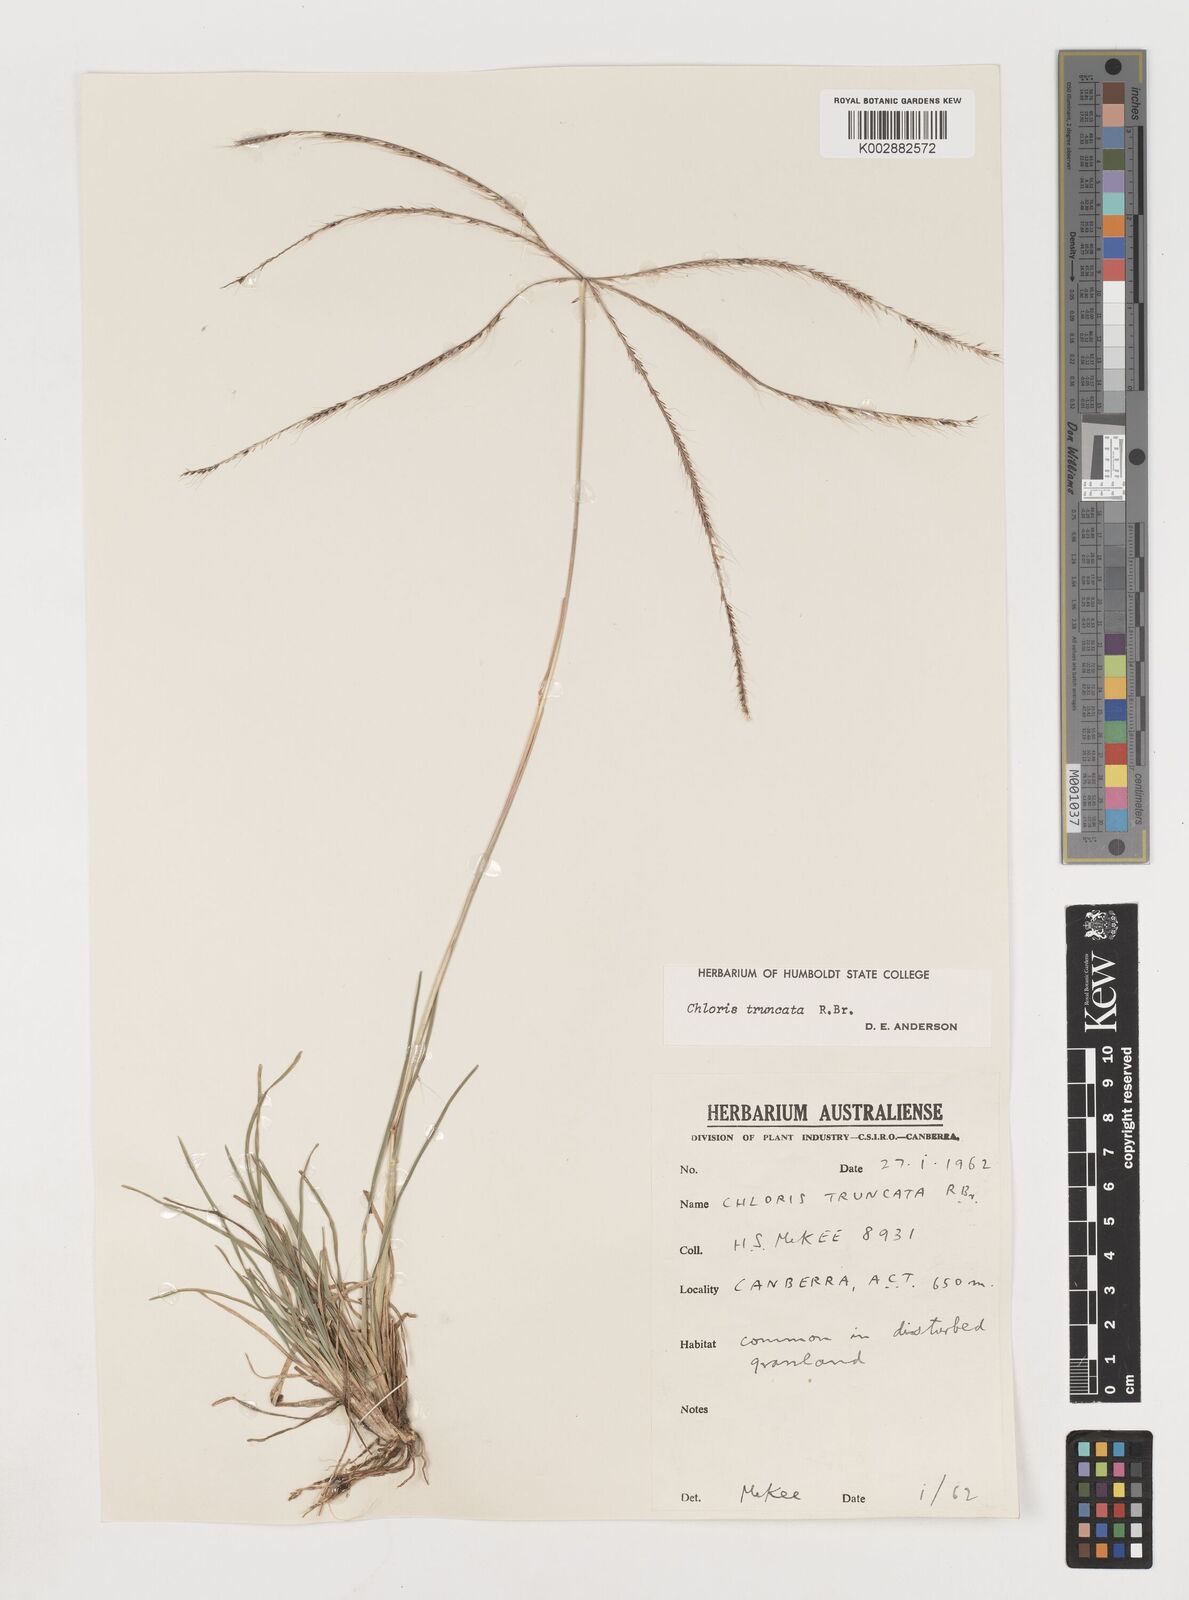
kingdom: Plantae
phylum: Tracheophyta
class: Liliopsida
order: Poales
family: Poaceae
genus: Chloris
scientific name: Chloris truncata
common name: Windmill-grass
